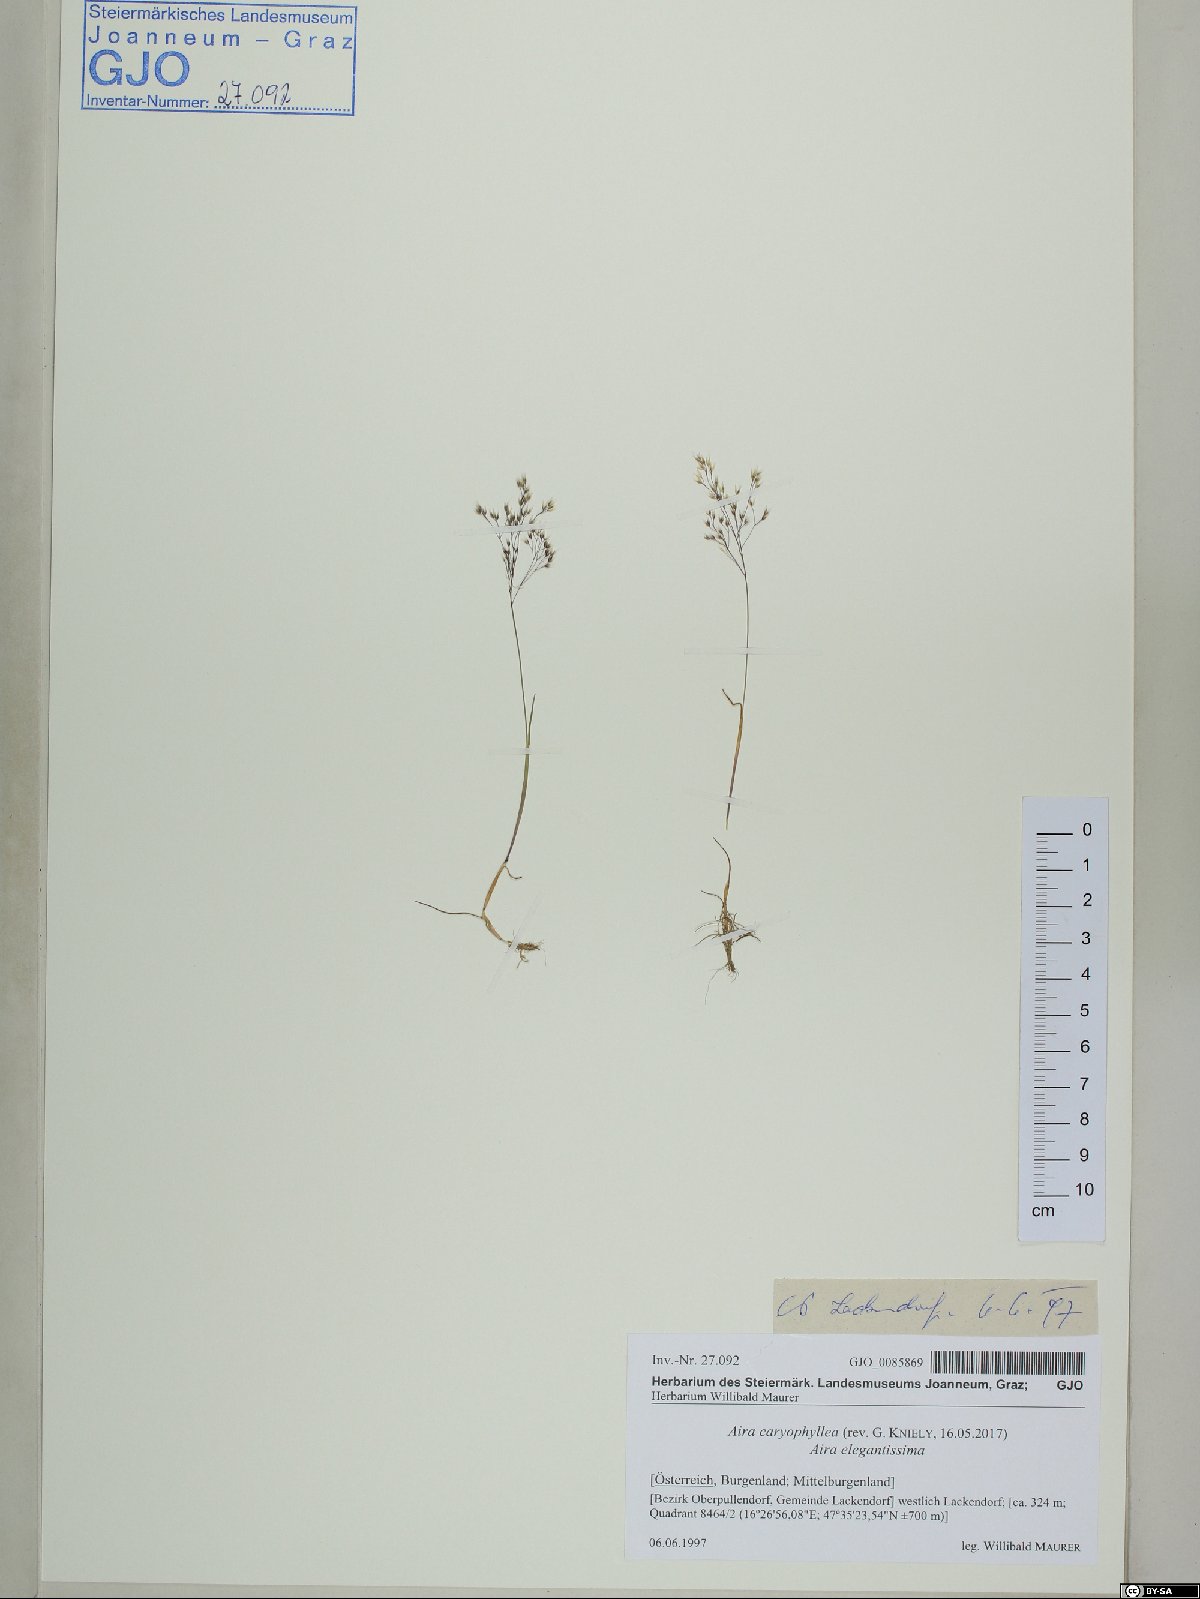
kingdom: Plantae
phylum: Tracheophyta
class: Liliopsida
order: Poales
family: Poaceae
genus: Aira
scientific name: Aira caryophyllea
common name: Silver hairgrass
